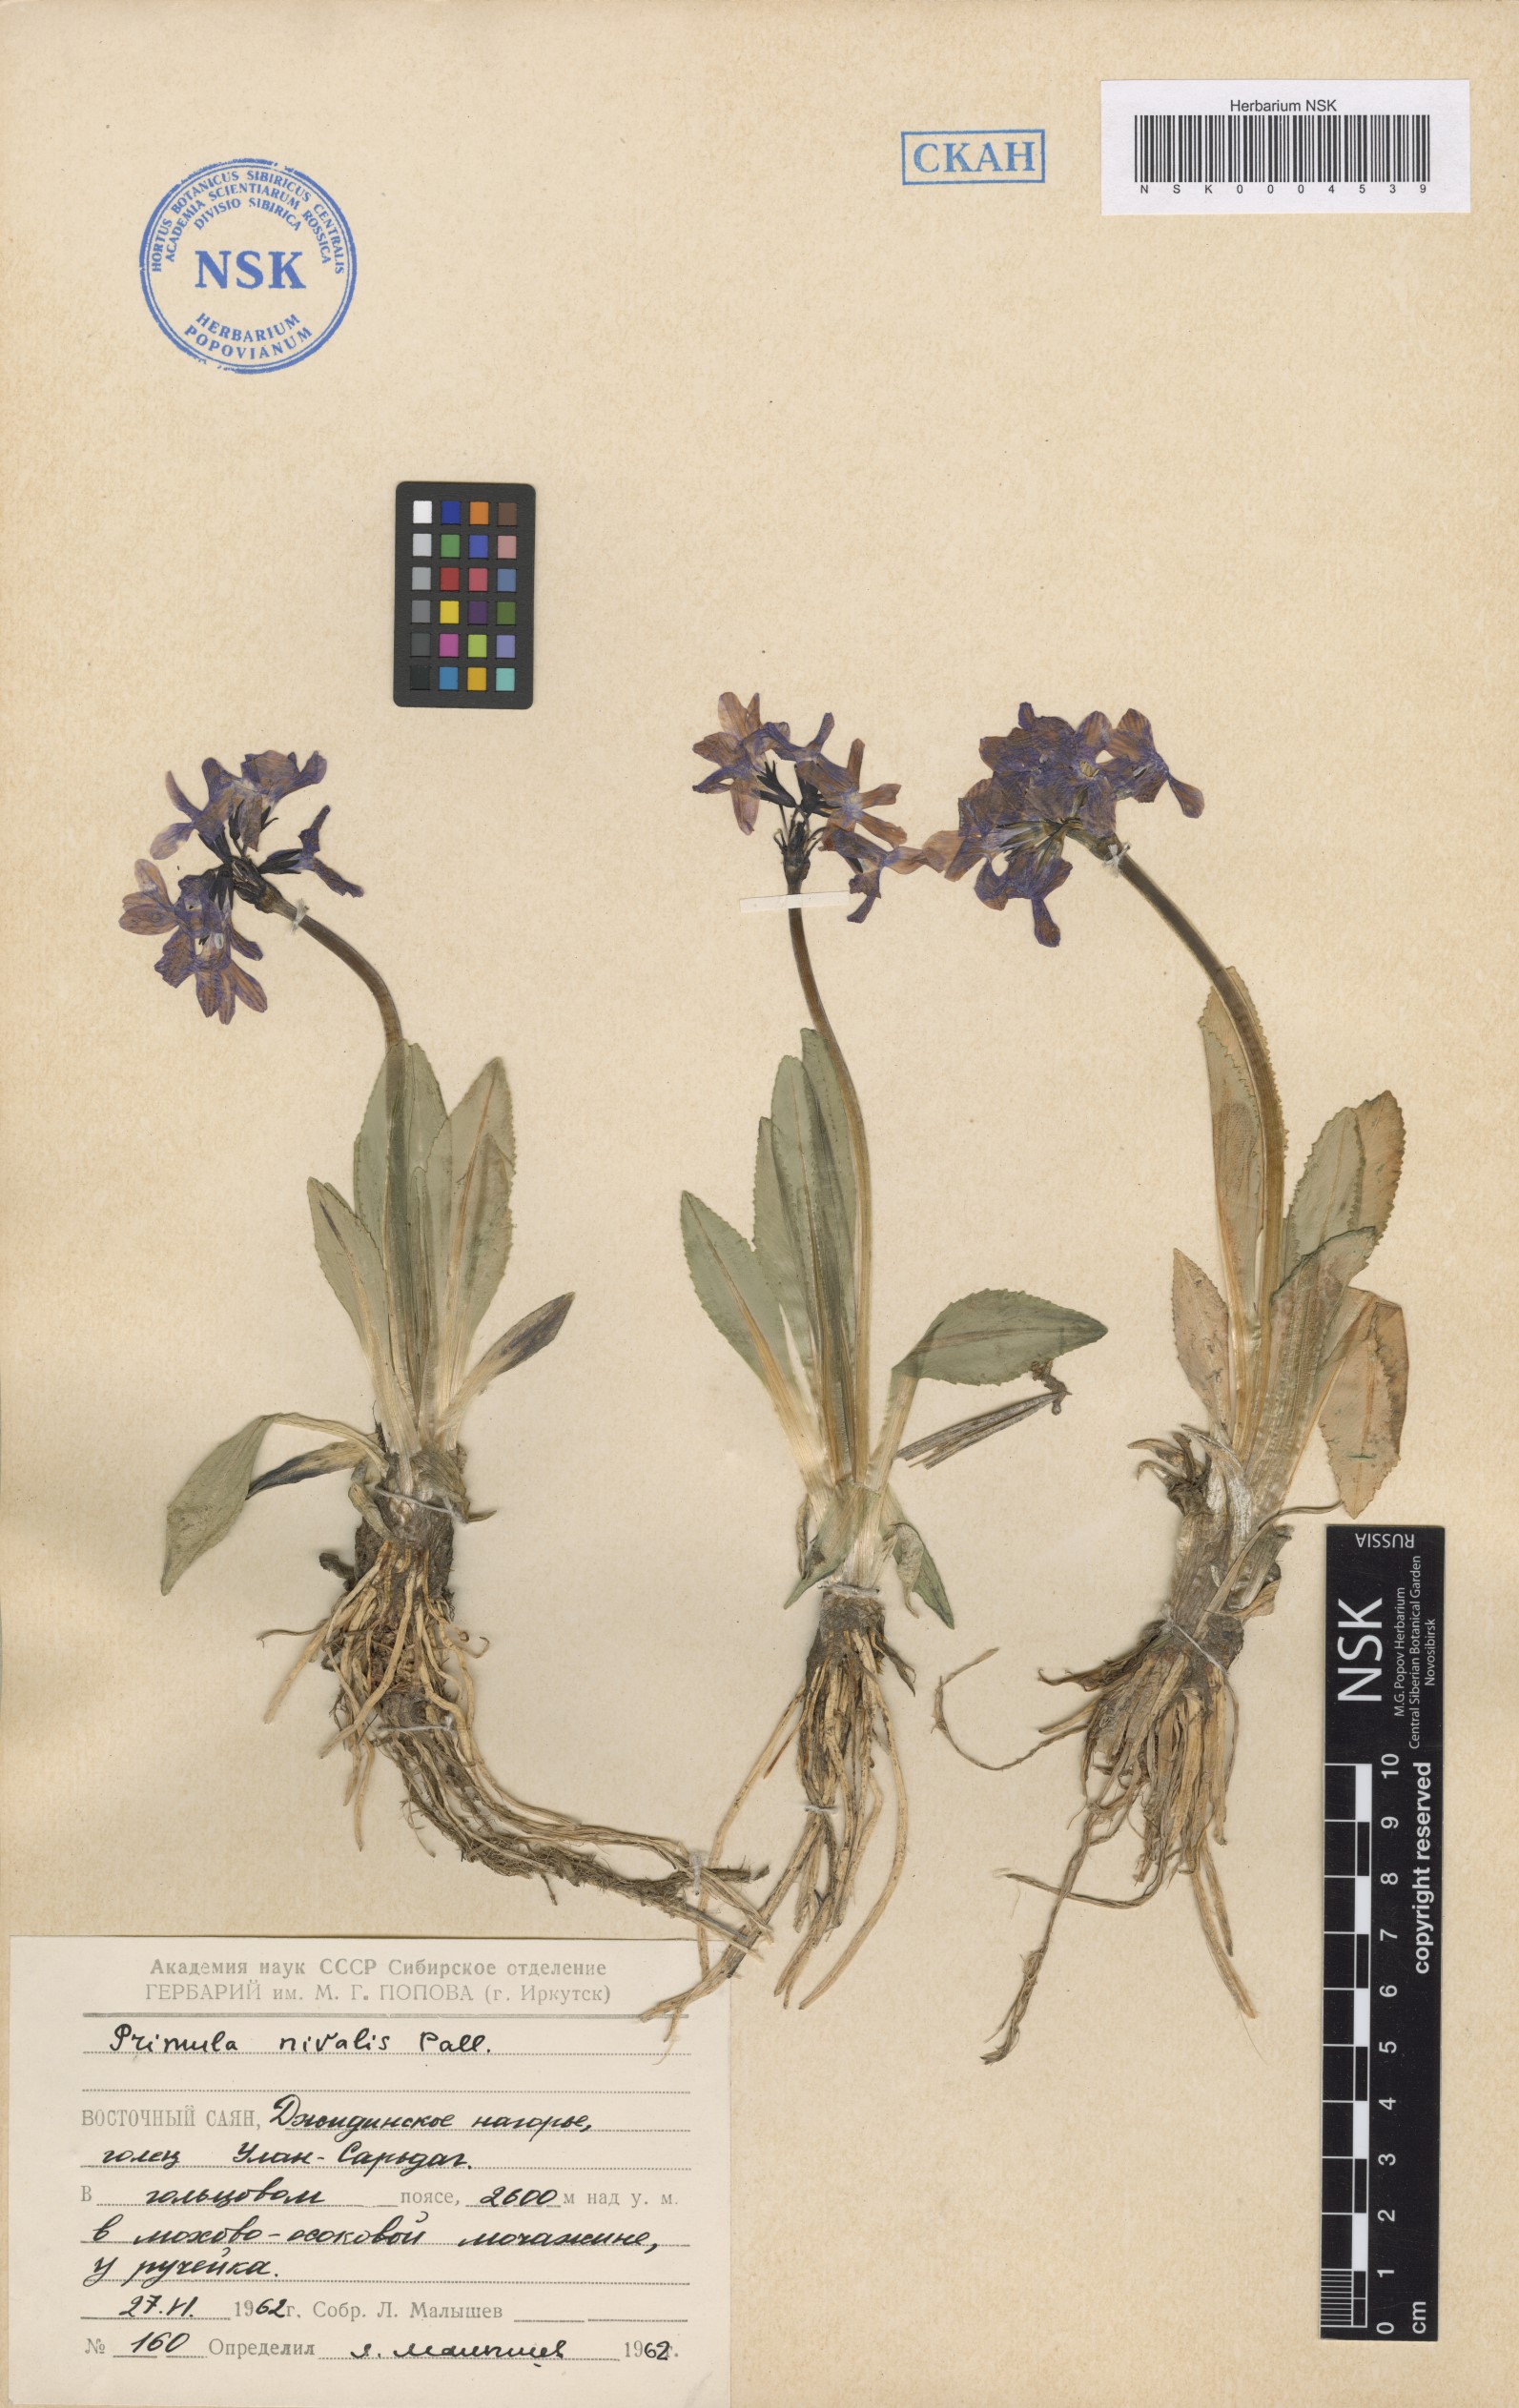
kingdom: Plantae
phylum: Tracheophyta
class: Magnoliopsida
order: Ericales
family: Primulaceae
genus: Primula
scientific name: Primula nivalis
